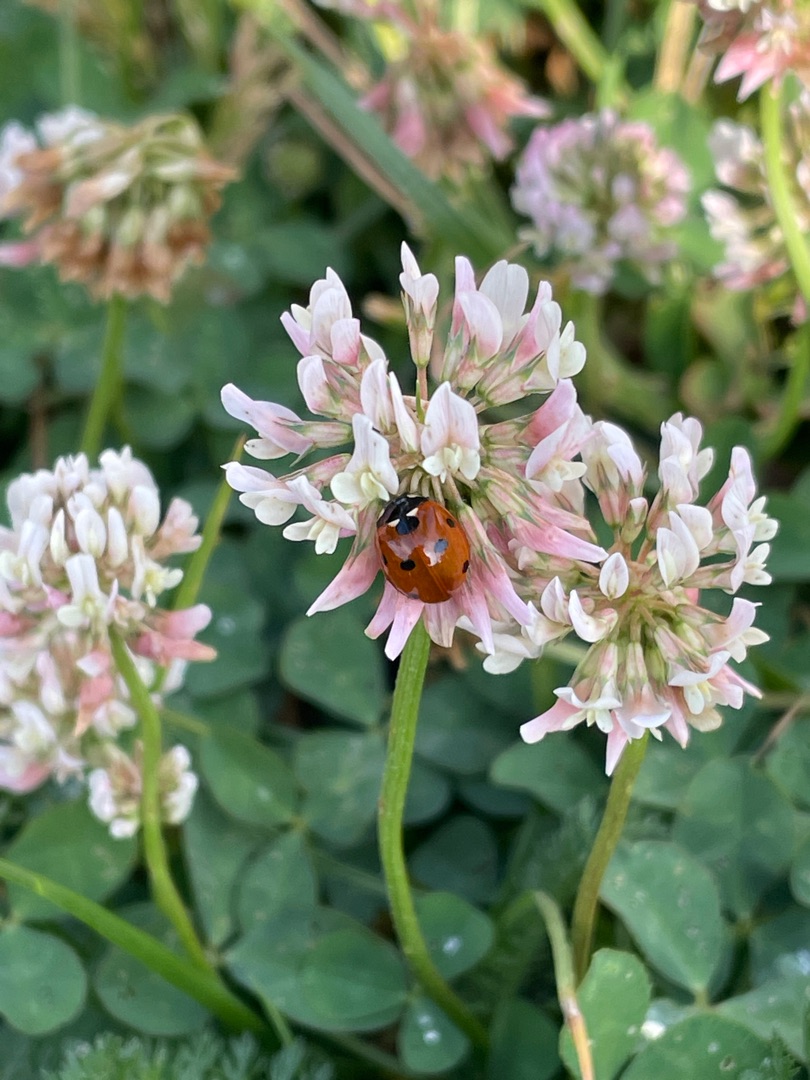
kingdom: Animalia
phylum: Arthropoda
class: Insecta
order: Coleoptera
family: Coccinellidae
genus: Coccinella
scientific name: Coccinella septempunctata
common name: Syvplettet mariehøne
